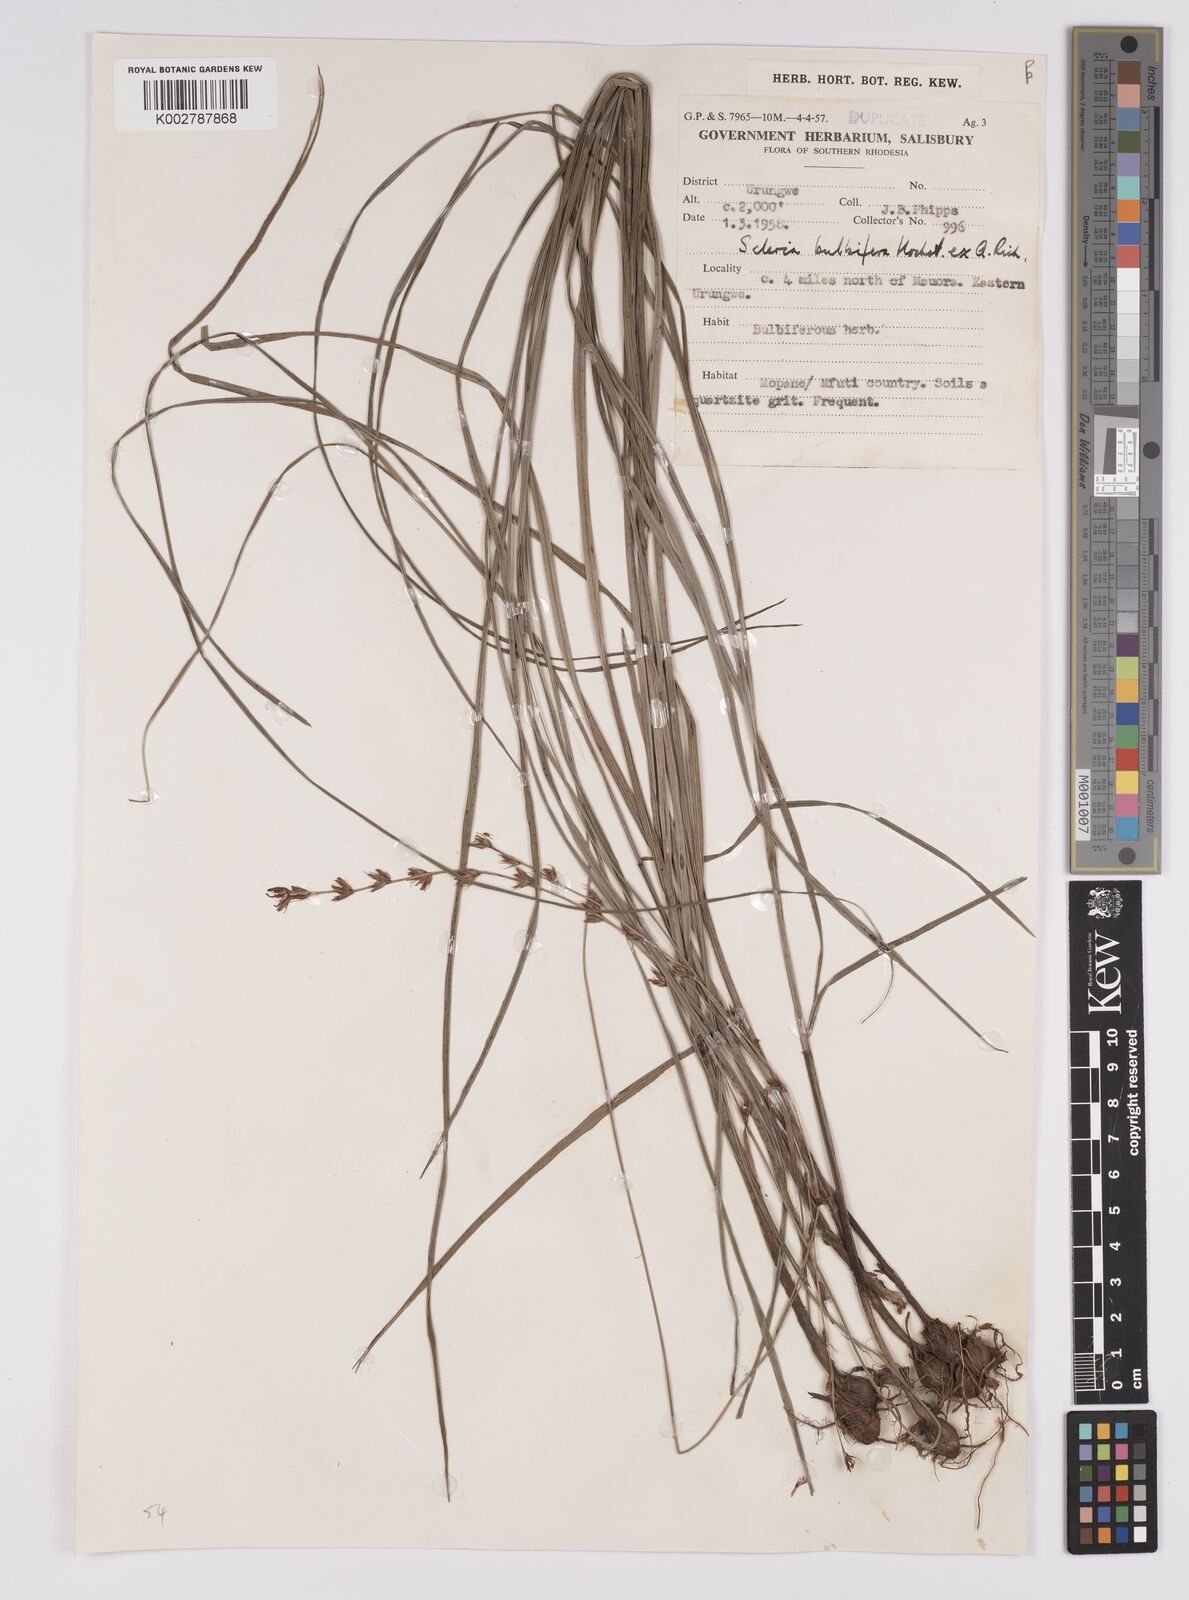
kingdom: Plantae
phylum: Tracheophyta
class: Liliopsida
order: Poales
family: Cyperaceae
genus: Scleria
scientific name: Scleria bulbifera
